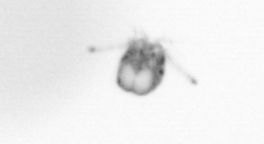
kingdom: Animalia
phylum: Arthropoda
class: Copepoda
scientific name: Copepoda
